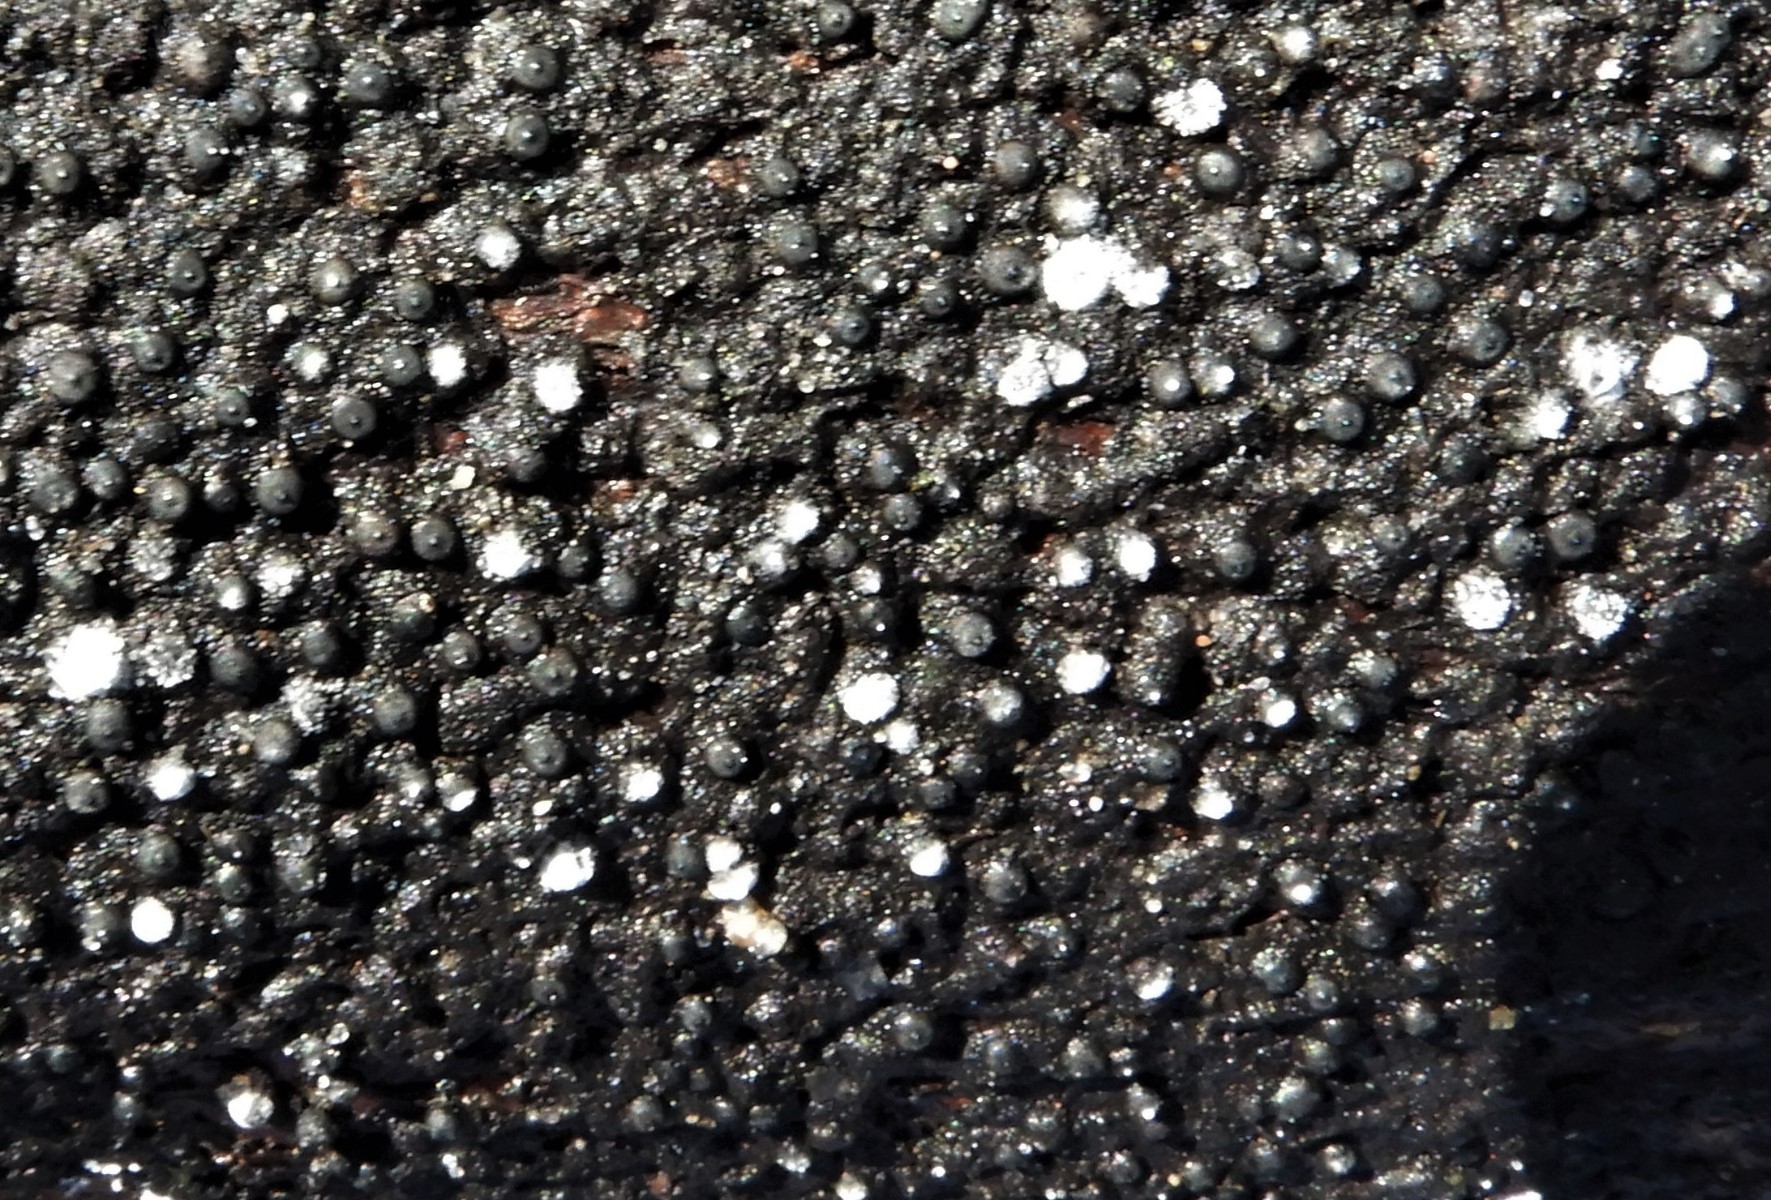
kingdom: Fungi
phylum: Ascomycota
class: Sordariomycetes
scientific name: Sordariomycetes
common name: kernesvampklassen
